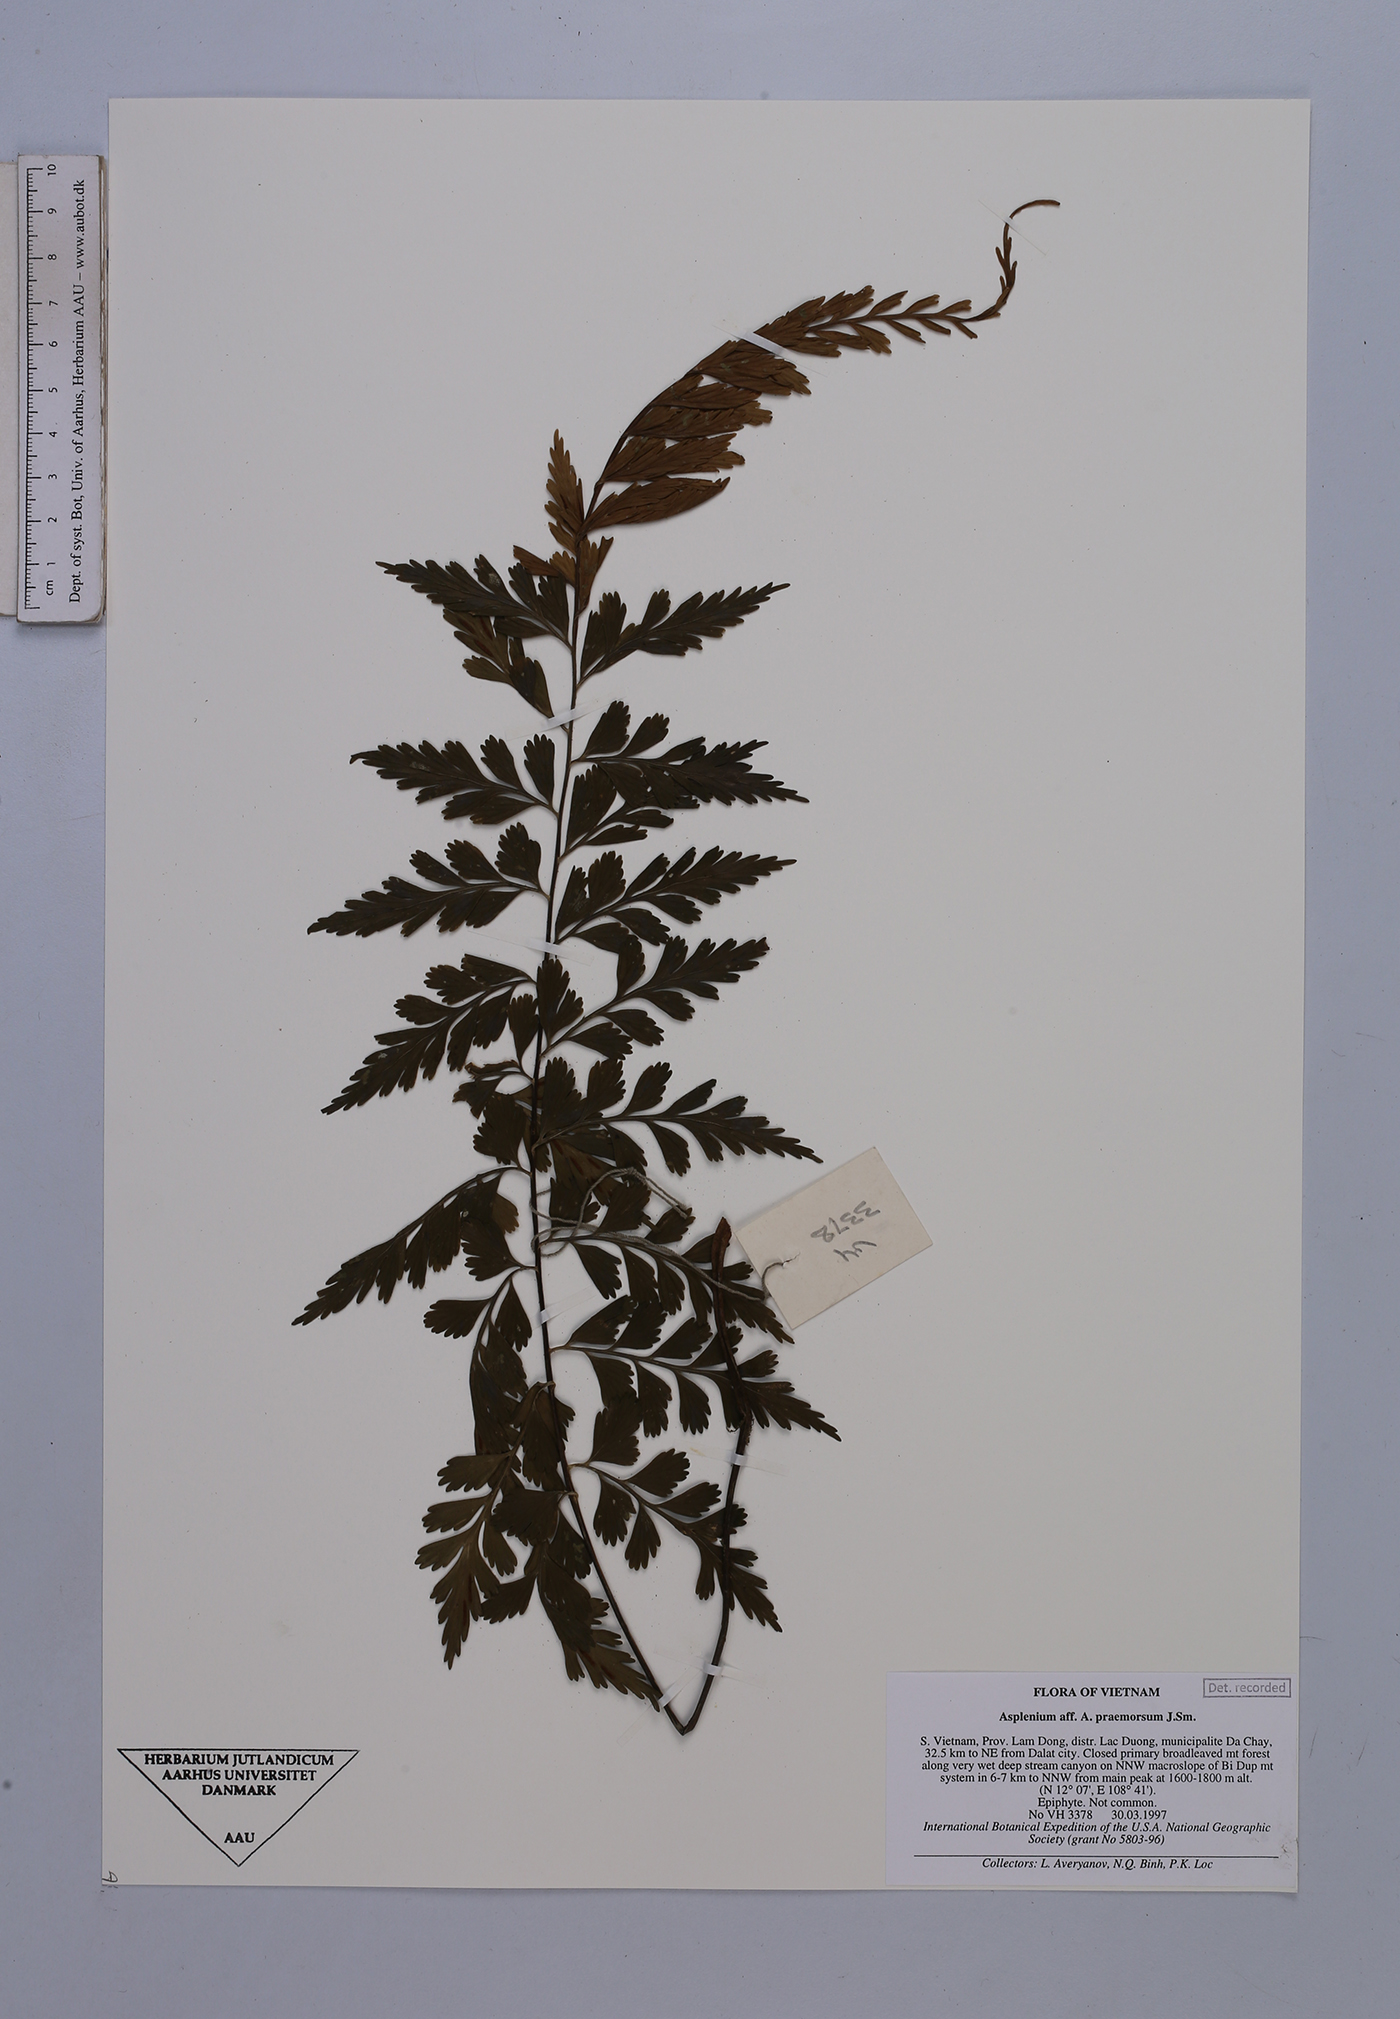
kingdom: Plantae
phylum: Tracheophyta
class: Polypodiopsida
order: Polypodiales
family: Aspleniaceae
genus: Asplenium
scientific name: Asplenium praemorsum
